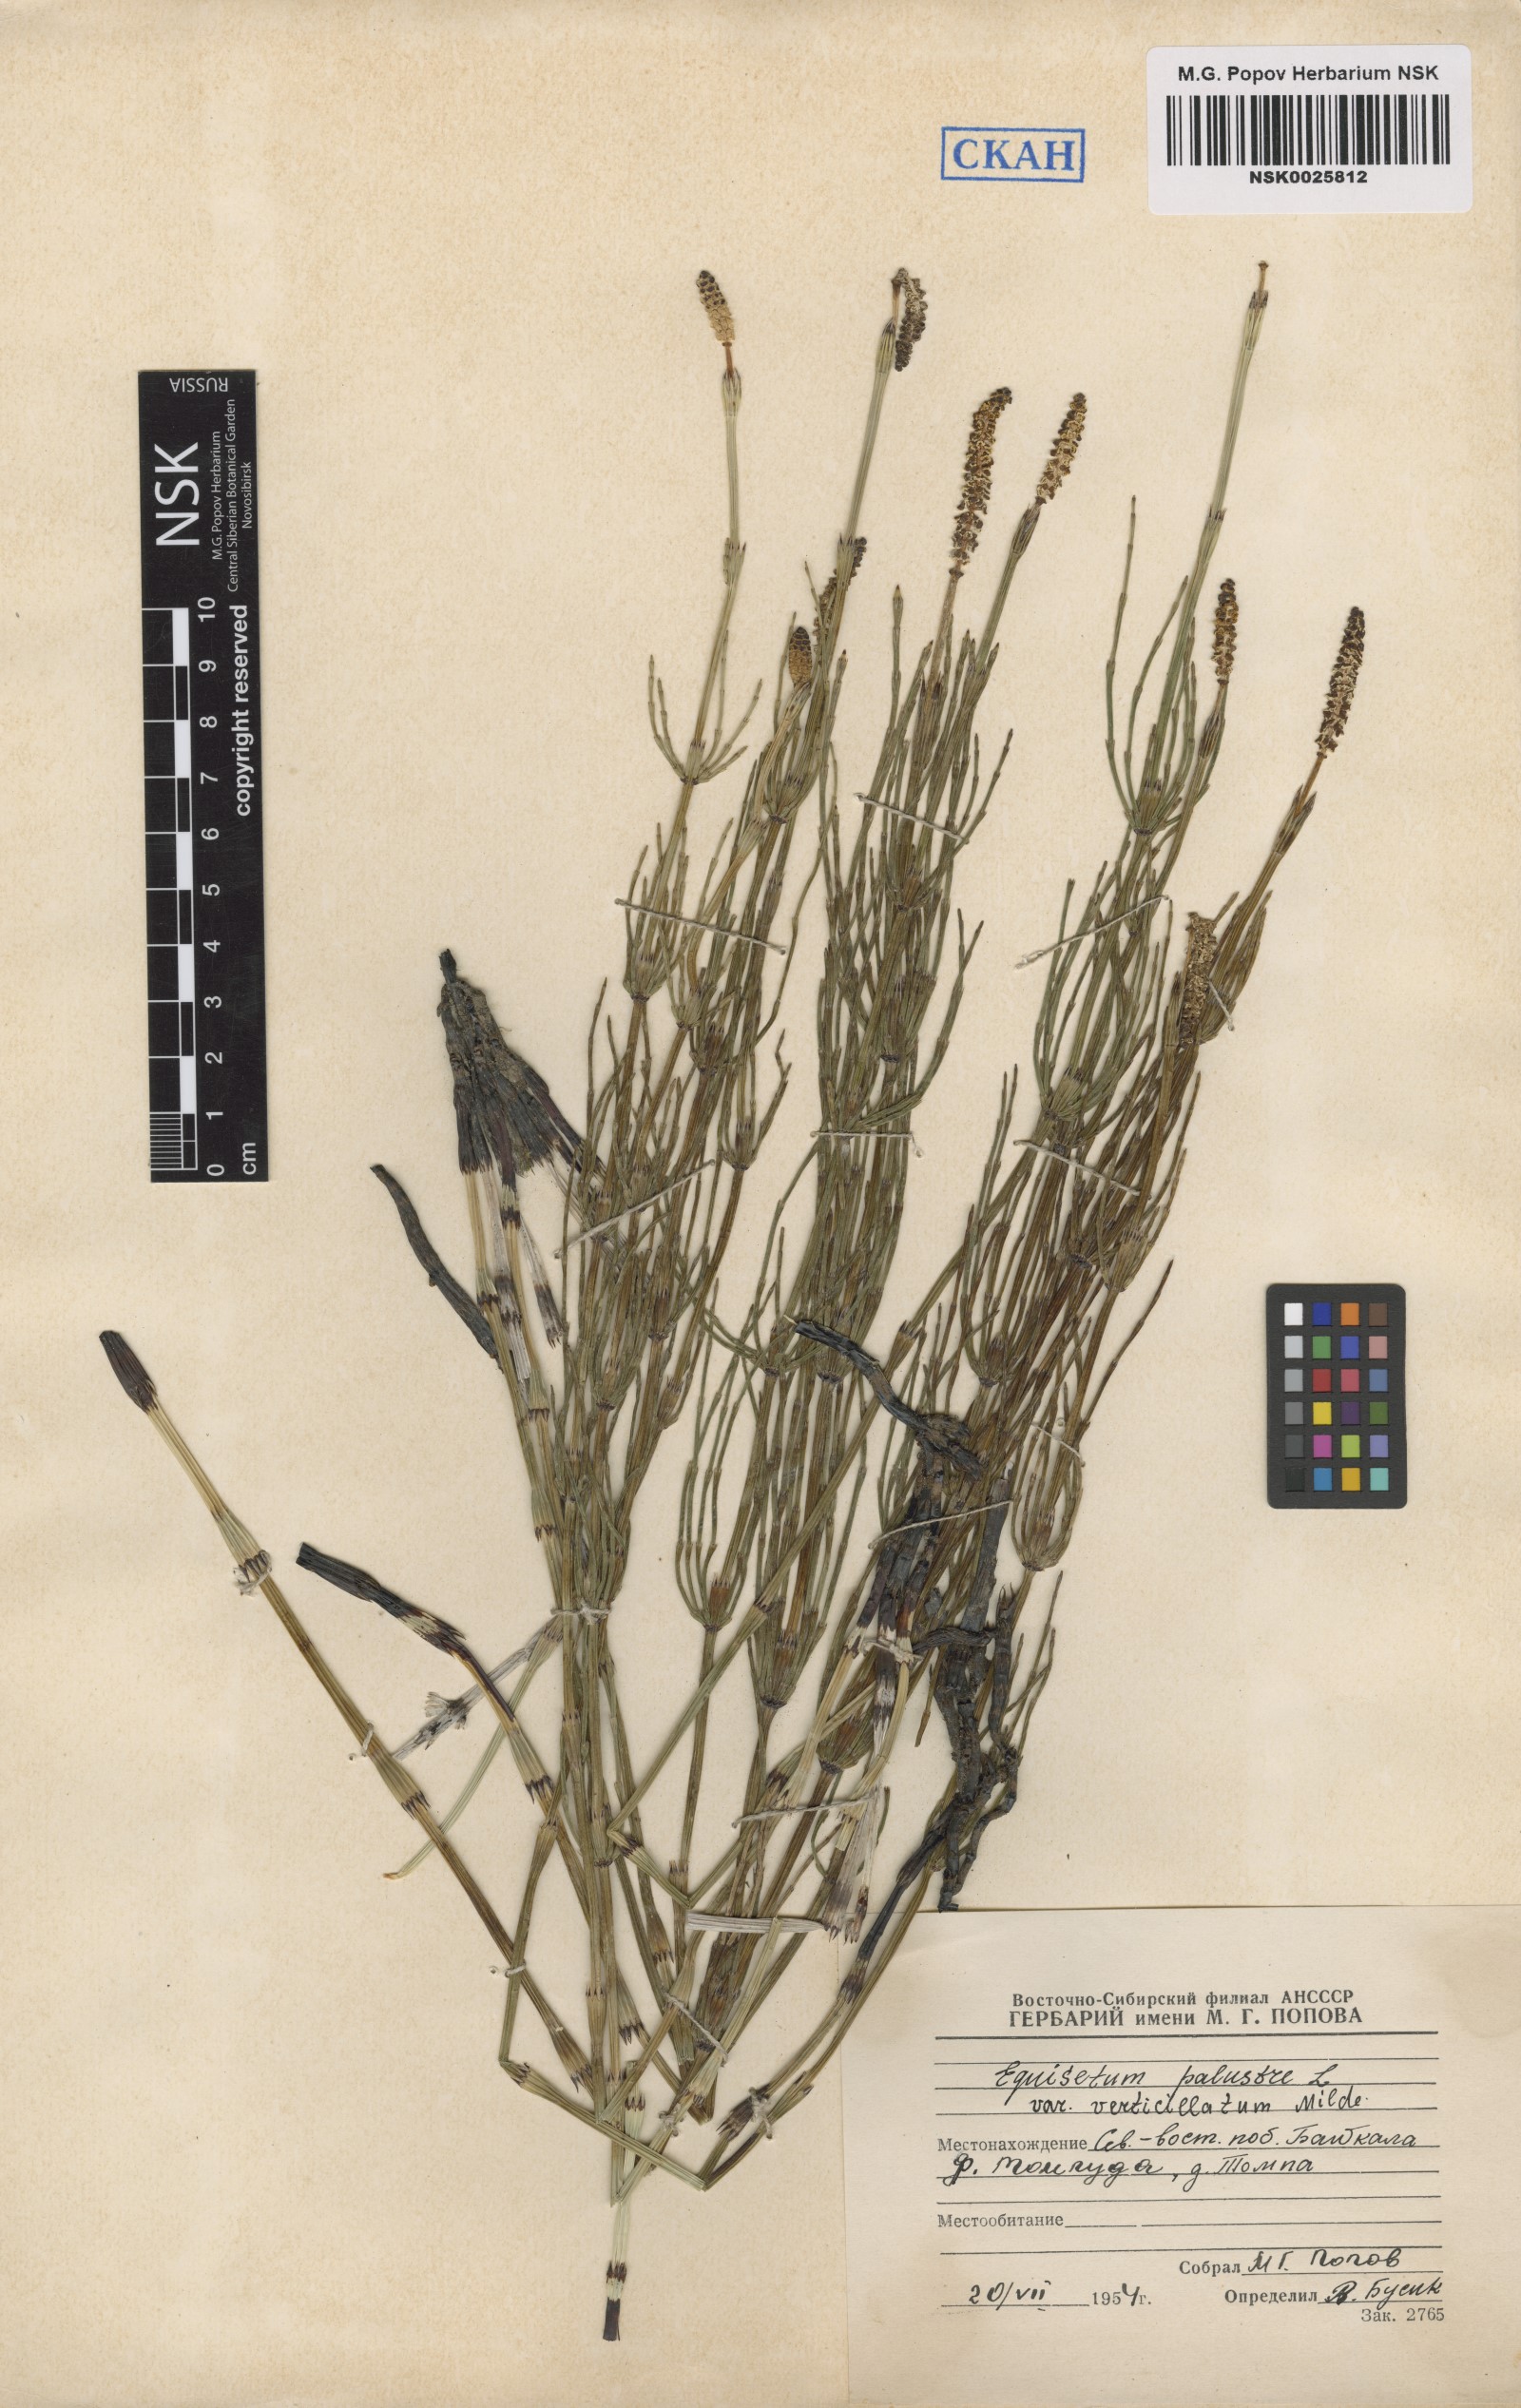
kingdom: Plantae
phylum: Tracheophyta
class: Polypodiopsida
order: Equisetales
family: Equisetaceae
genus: Equisetum
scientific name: Equisetum palustre
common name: Marsh horsetail
